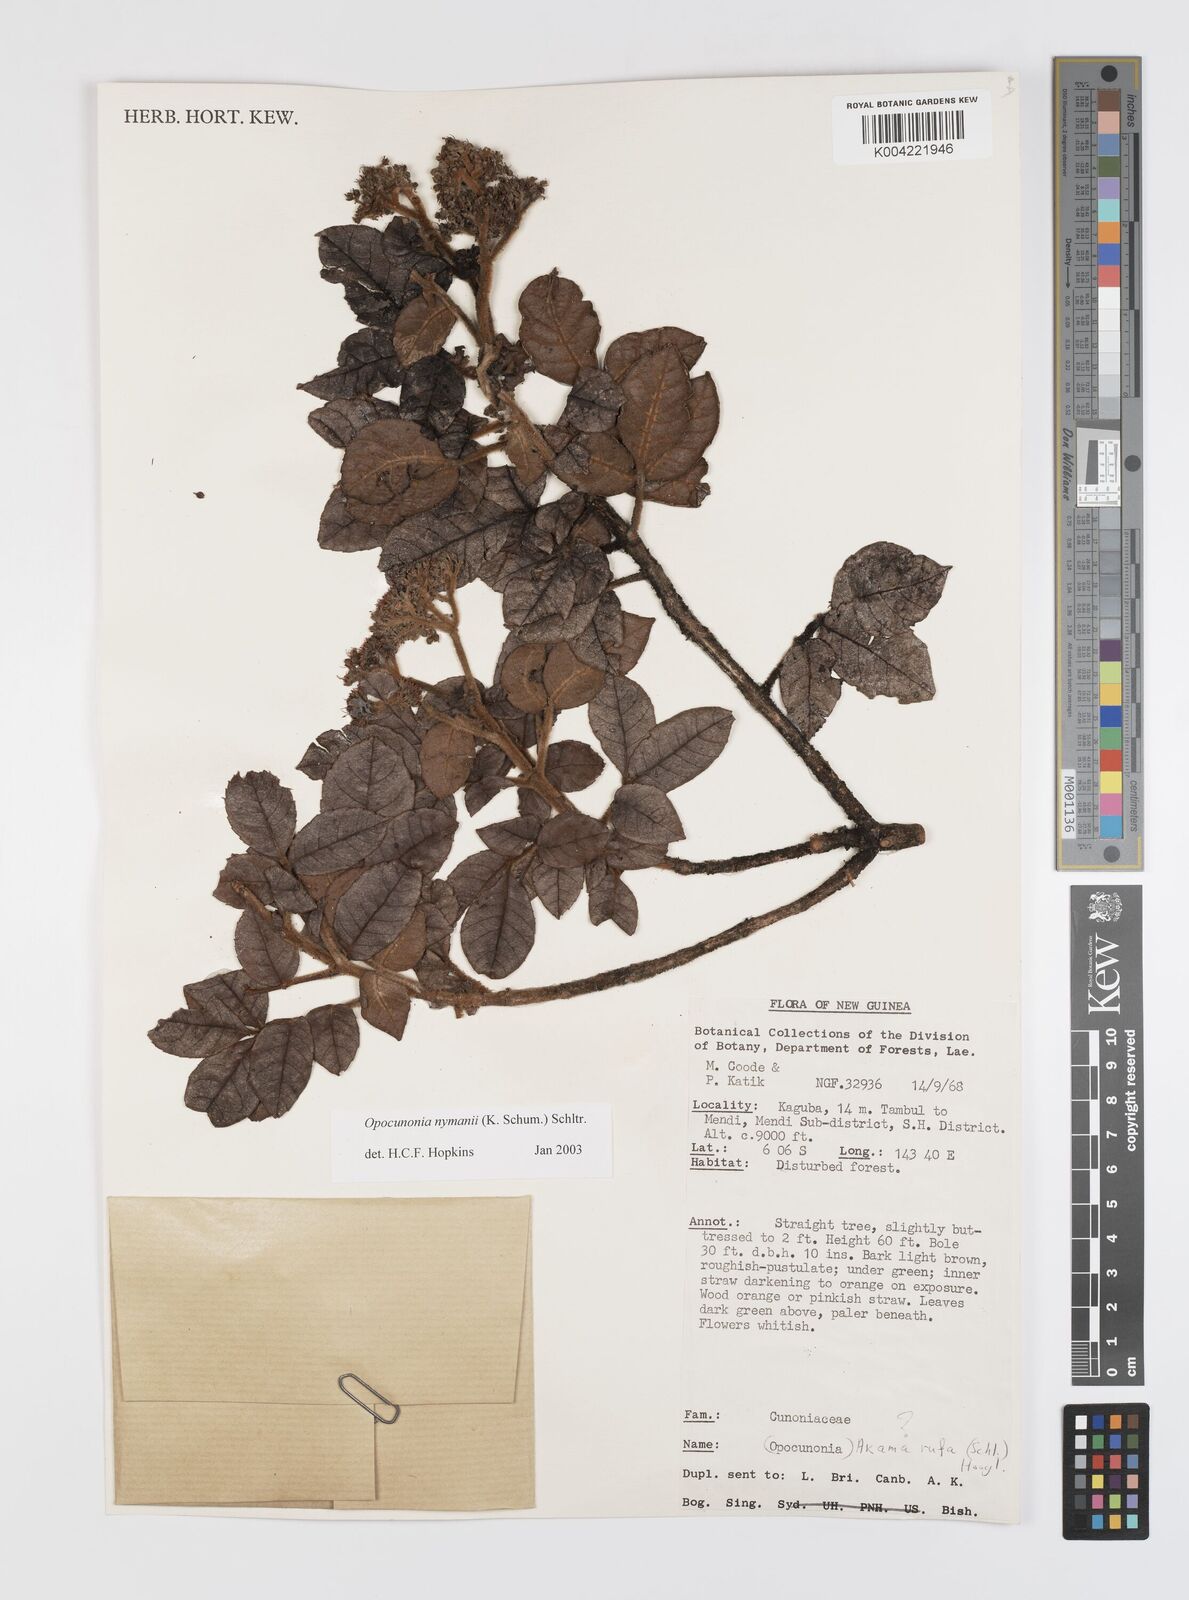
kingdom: Plantae
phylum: Tracheophyta
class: Magnoliopsida
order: Oxalidales
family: Cunoniaceae
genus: Opocunonia
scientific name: Opocunonia nymanii
